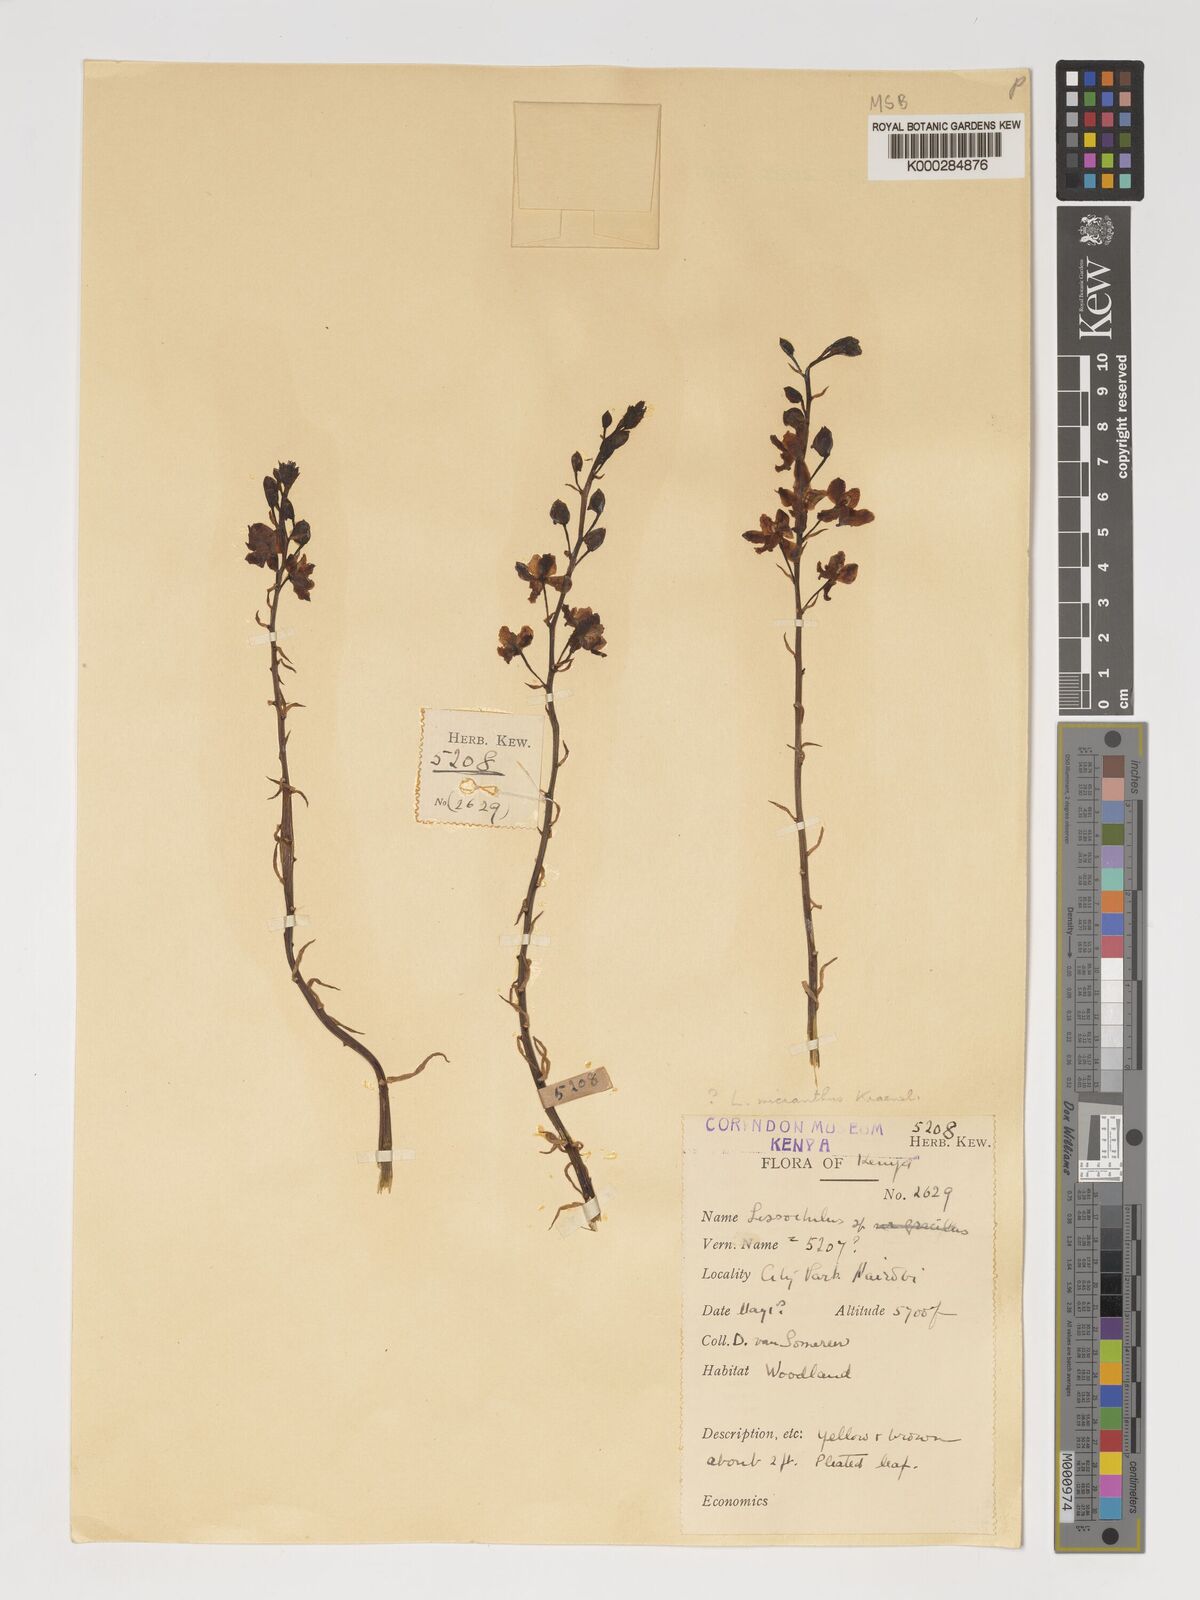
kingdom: Plantae
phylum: Tracheophyta
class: Liliopsida
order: Asparagales
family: Orchidaceae
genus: Eulophia
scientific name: Eulophia streptopetala
